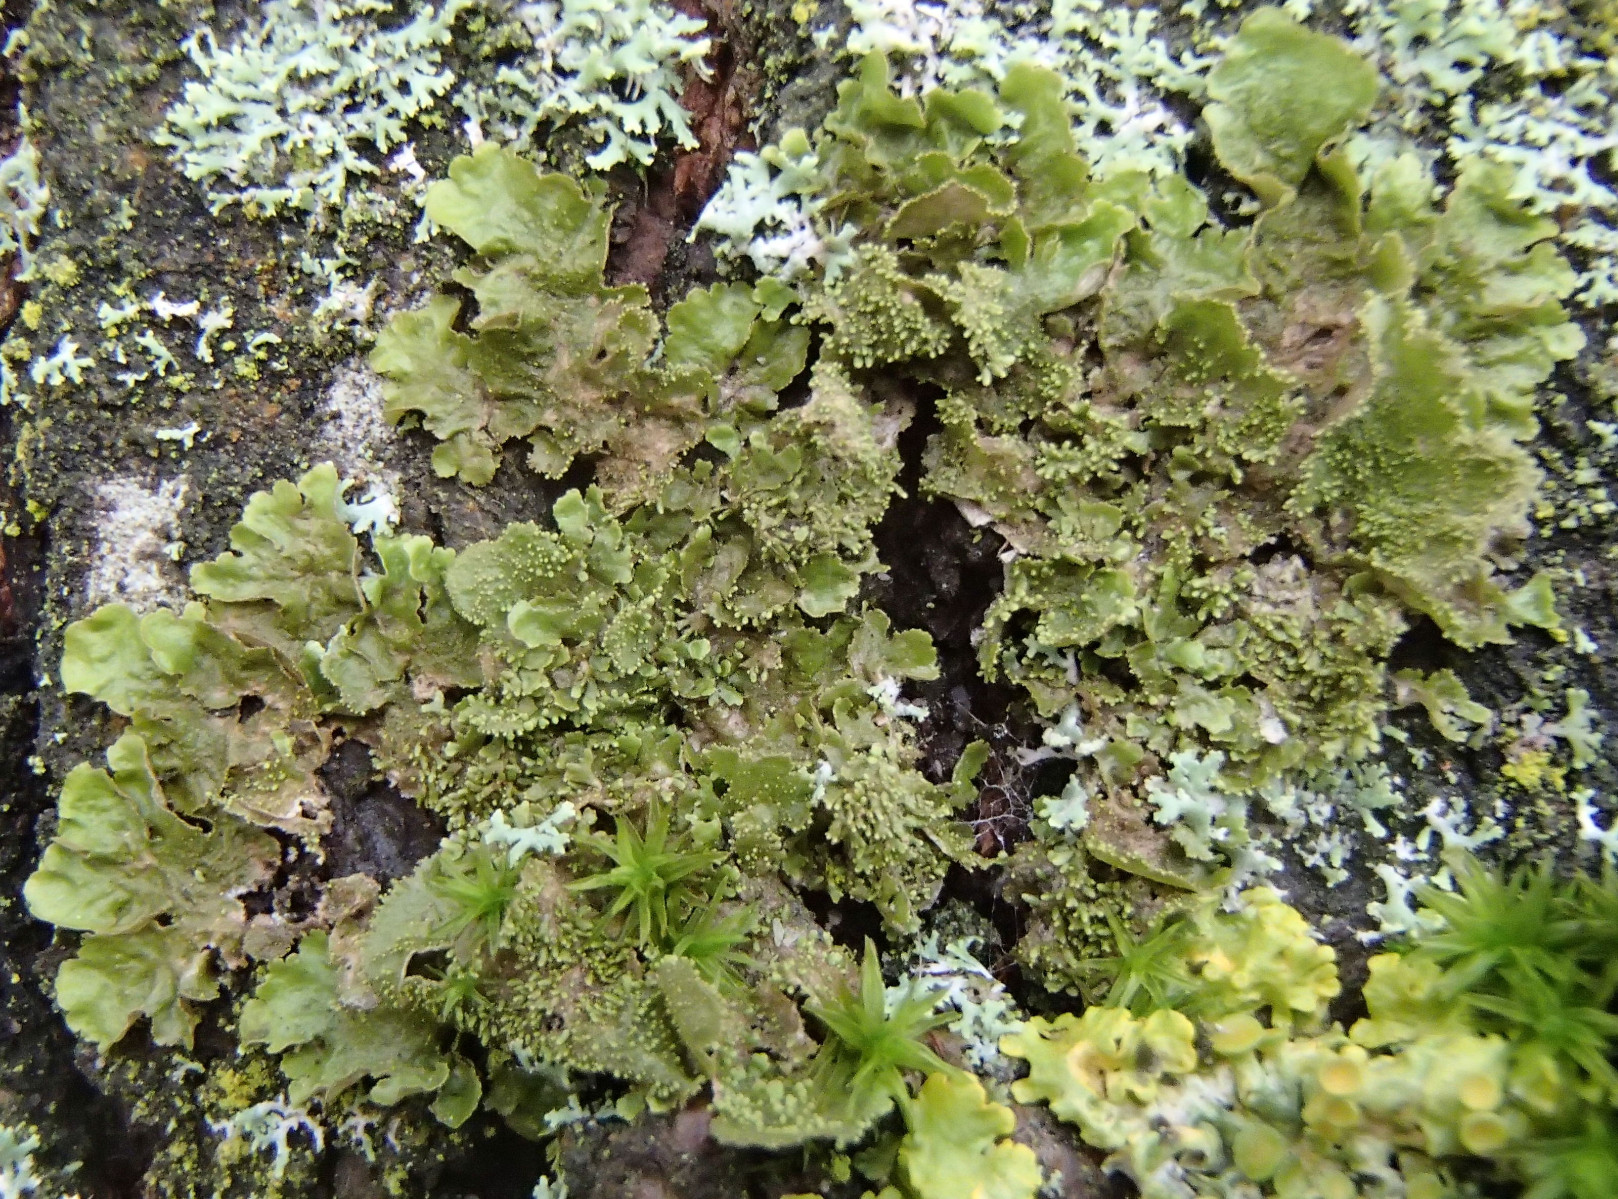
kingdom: Fungi
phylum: Ascomycota
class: Lecanoromycetes
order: Lecanorales
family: Parmeliaceae
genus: Melanohalea
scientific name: Melanohalea exasperatula
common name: kølle-skållav
